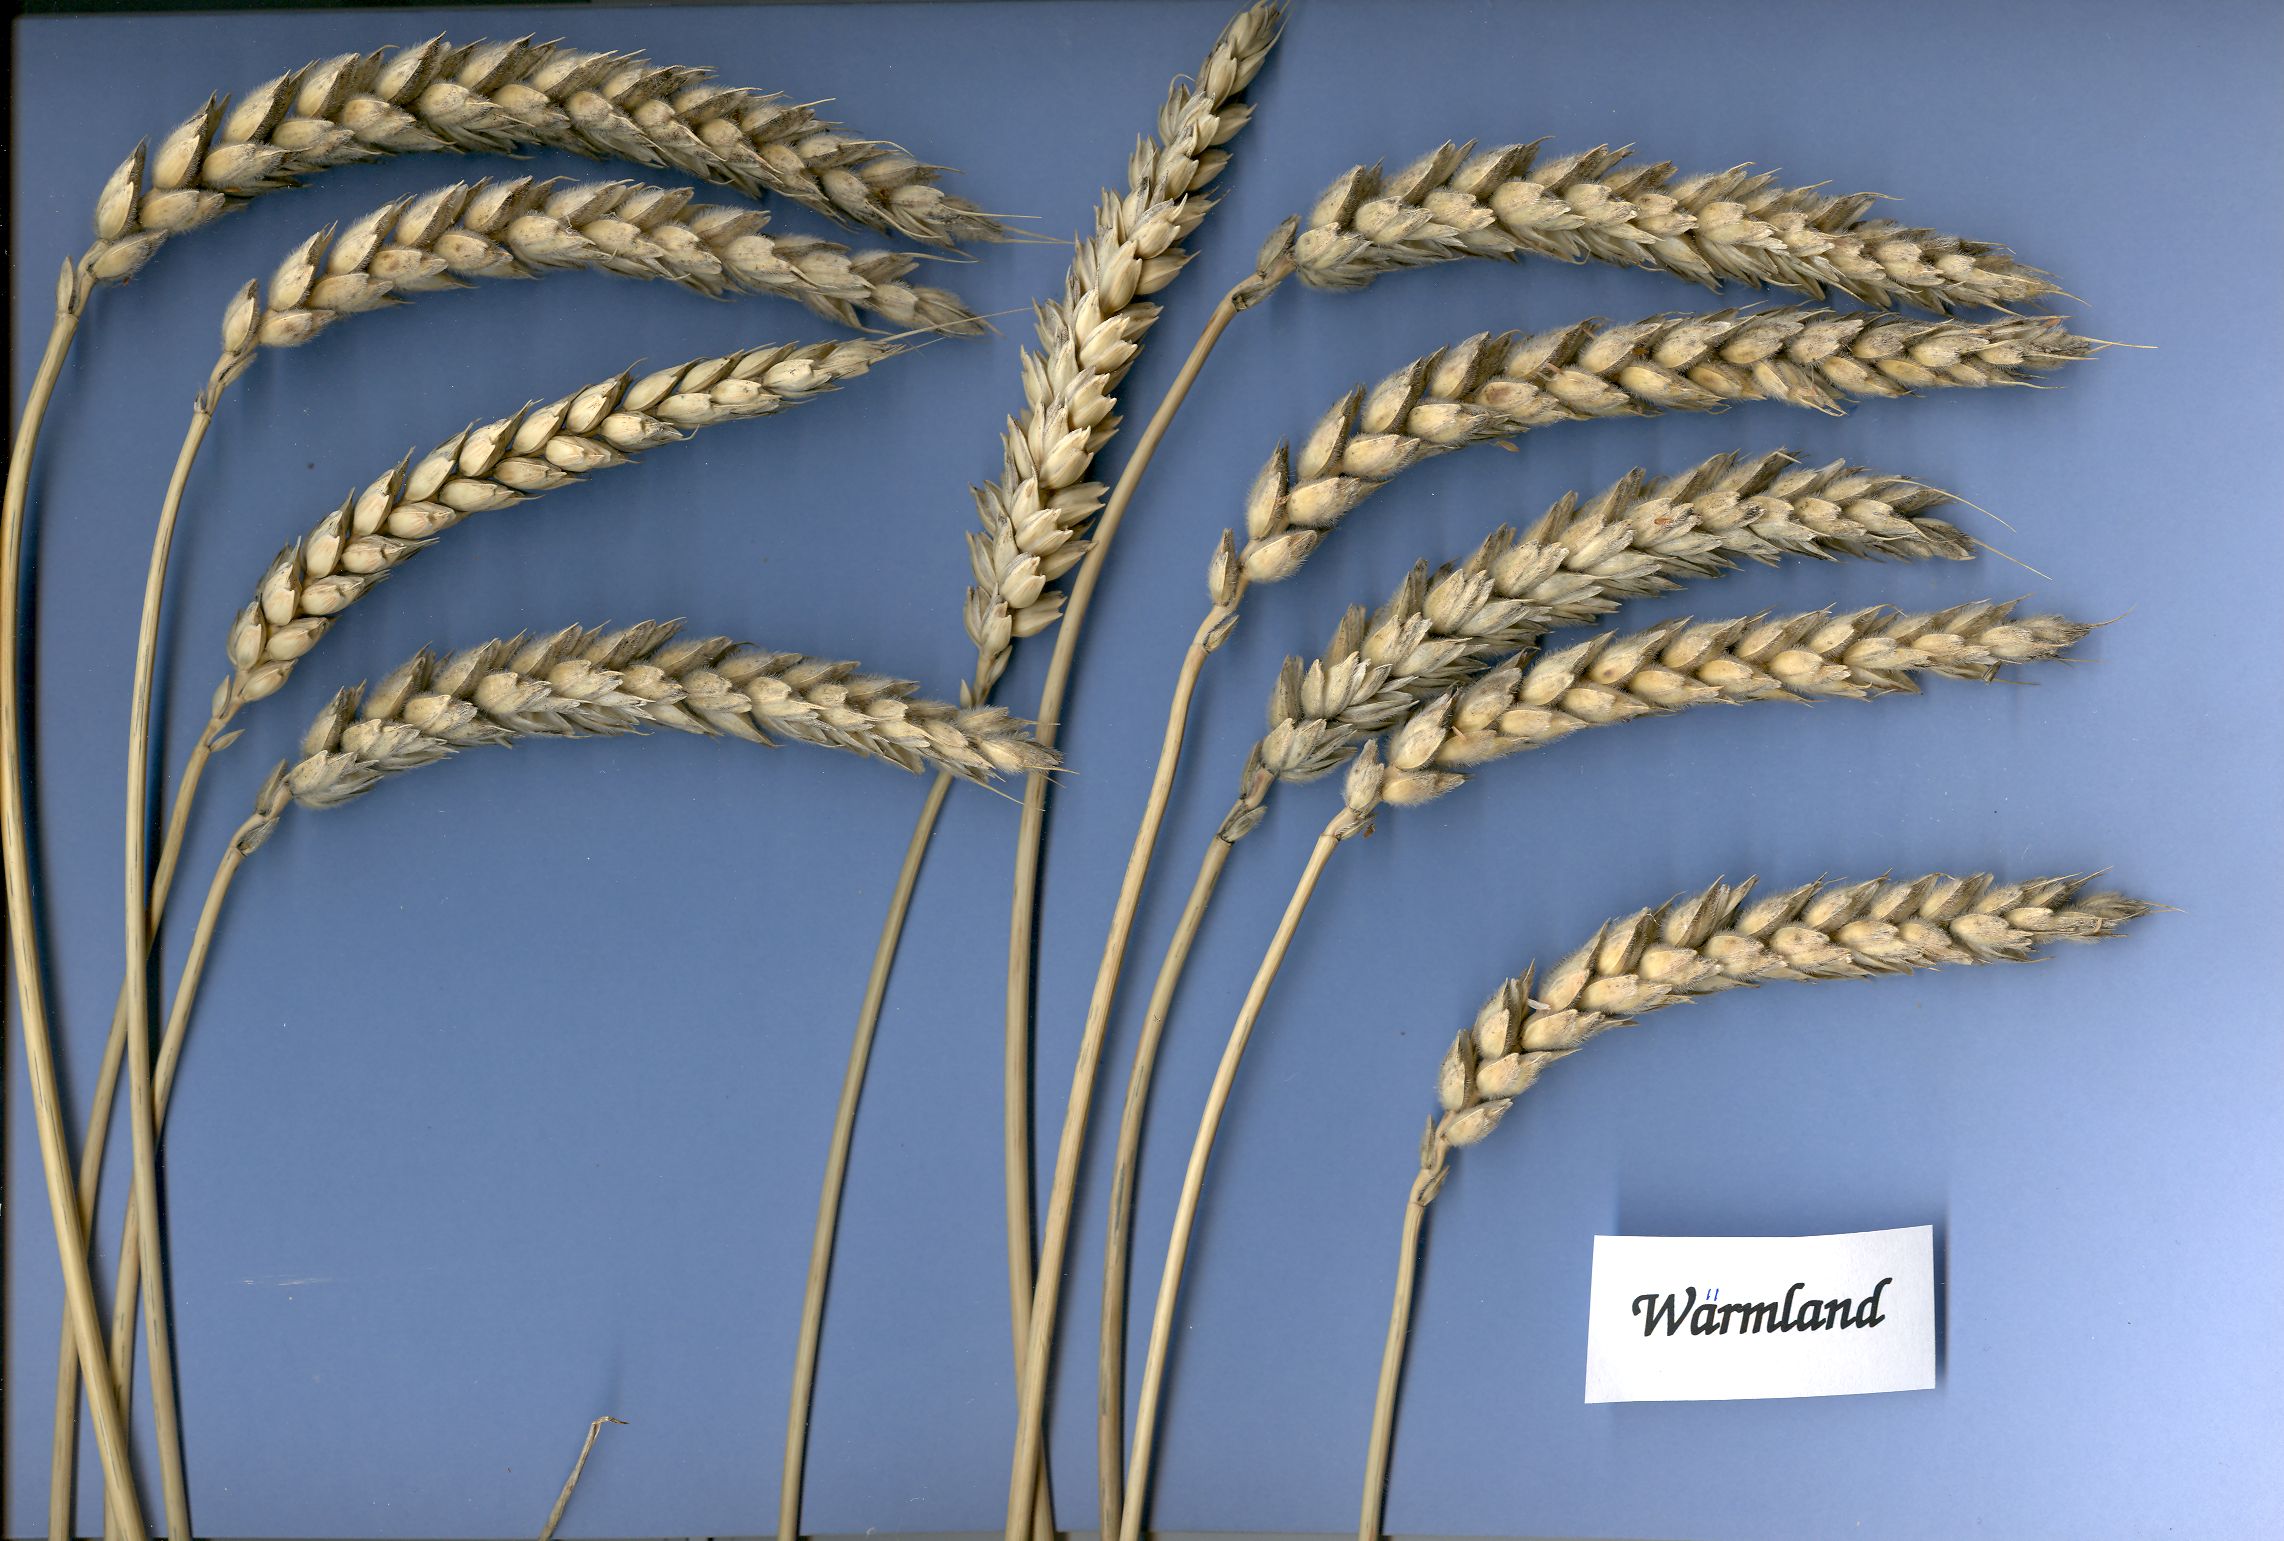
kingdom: Plantae
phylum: Tracheophyta
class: Liliopsida
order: Poales
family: Poaceae
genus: Triticum
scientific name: Triticum aestivum
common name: Common wheat
